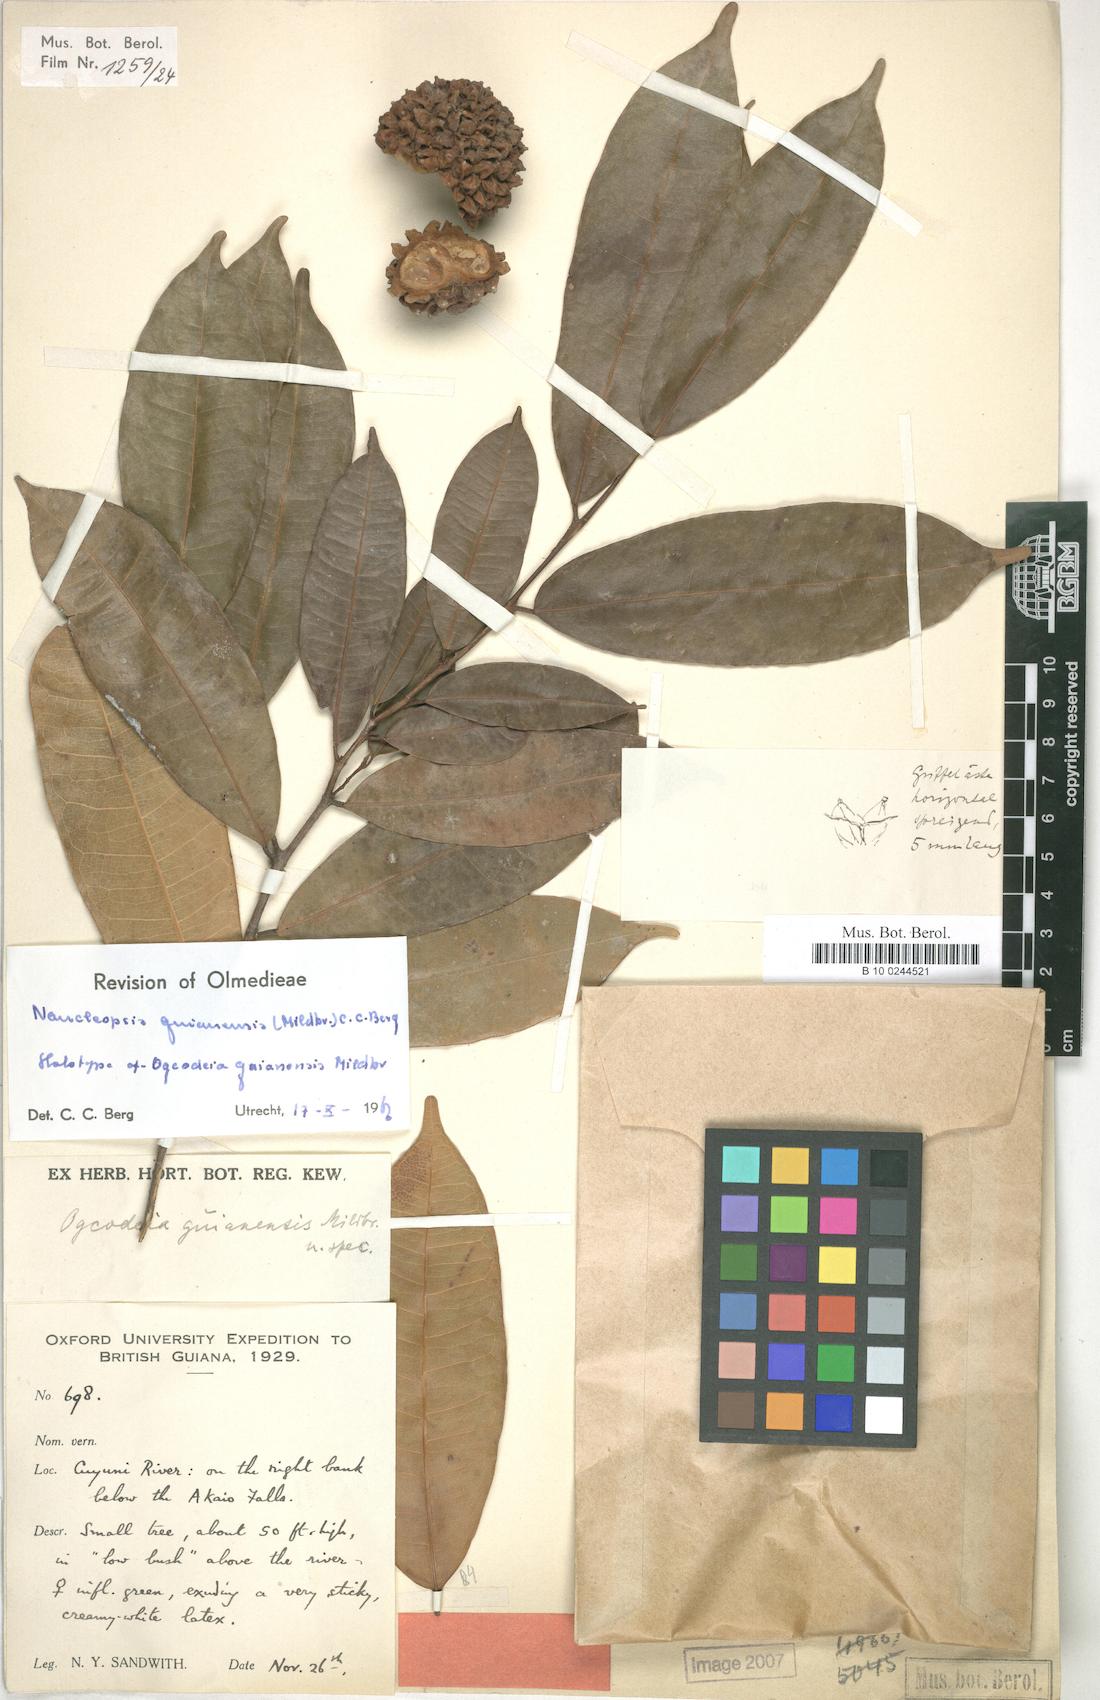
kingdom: Plantae
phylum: Tracheophyta
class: Magnoliopsida
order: Rosales
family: Moraceae
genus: Naucleopsis
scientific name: Naucleopsis guianensis
